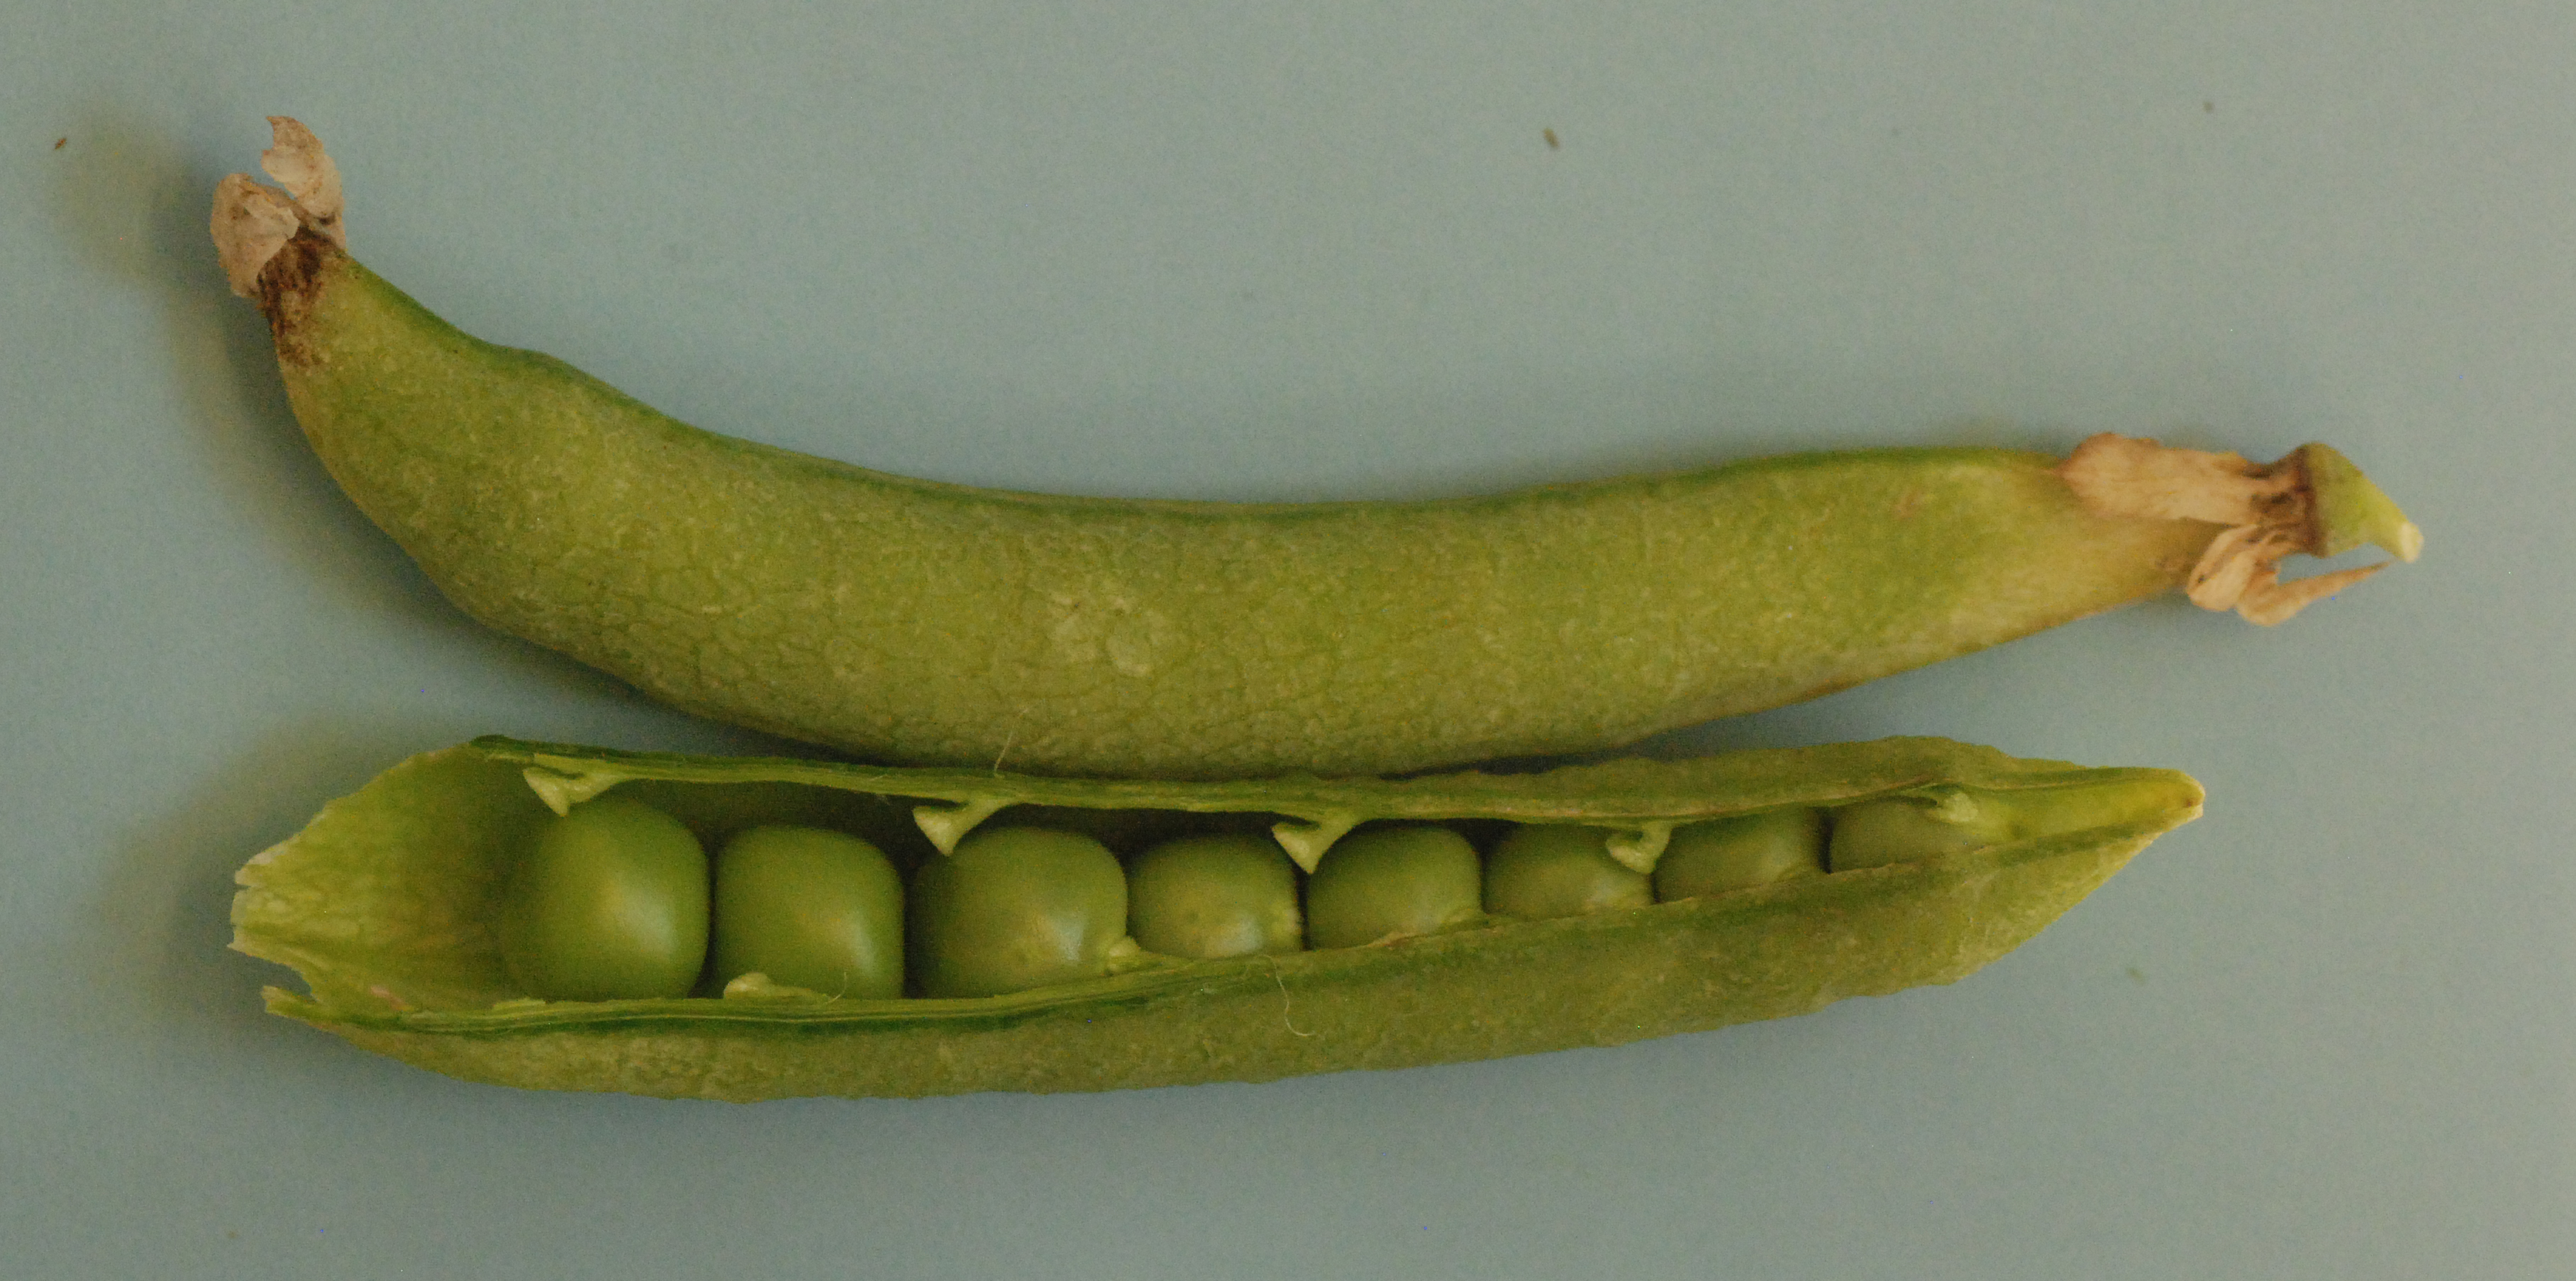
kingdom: Plantae
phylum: Tracheophyta
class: Magnoliopsida
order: Fabales
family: Fabaceae
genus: Lathyrus
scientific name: Lathyrus oleraceus
